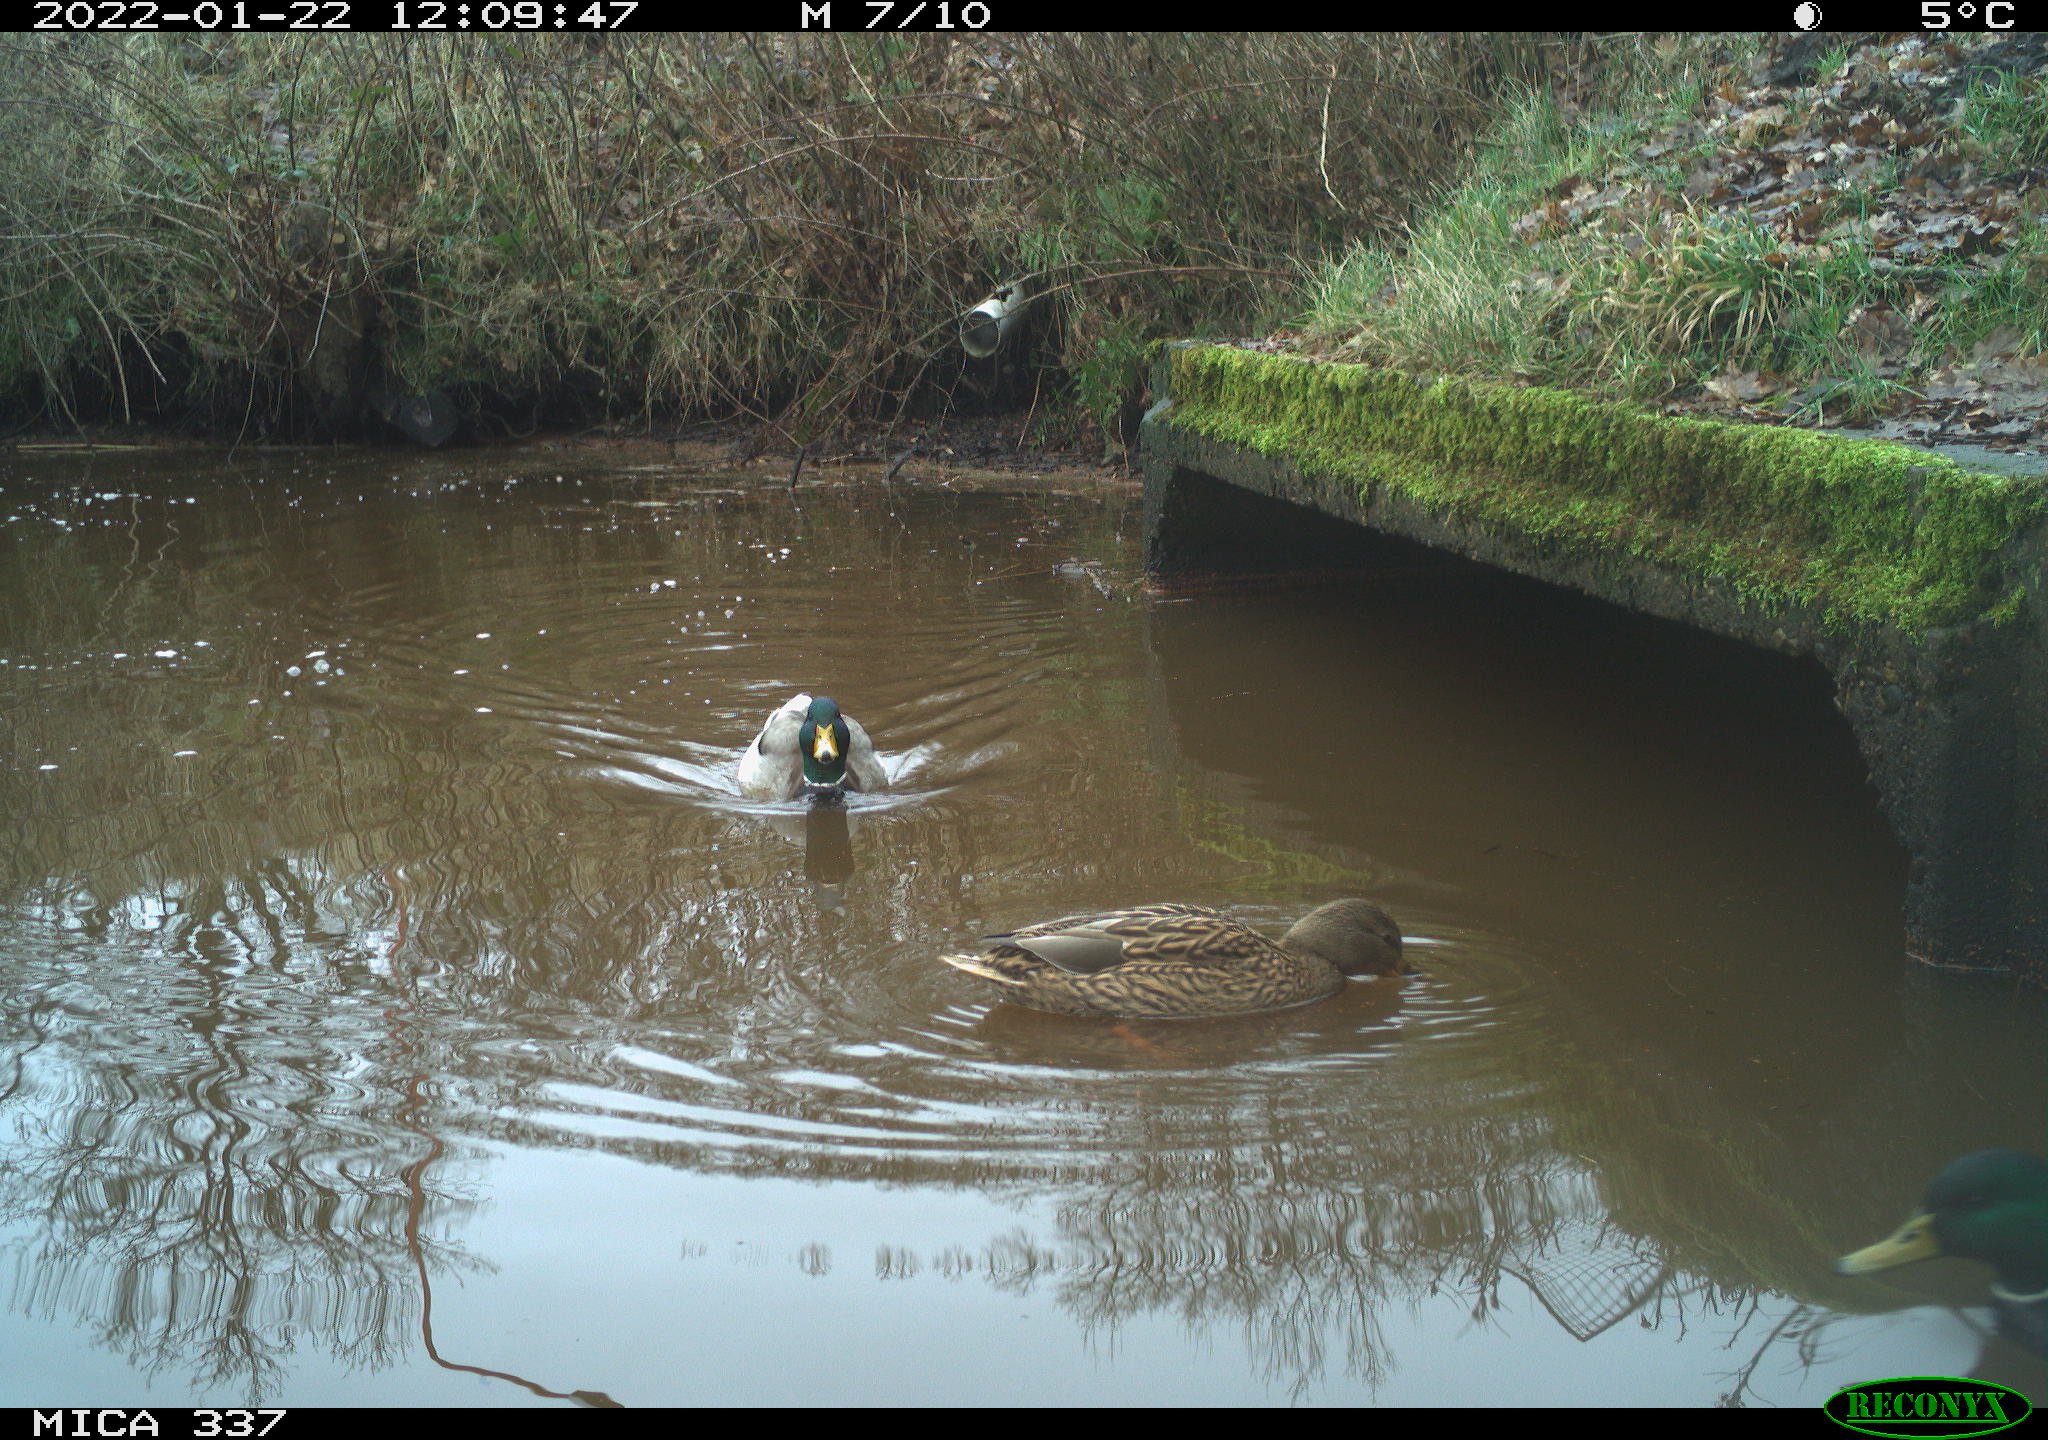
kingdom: Animalia
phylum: Chordata
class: Aves
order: Anseriformes
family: Anatidae
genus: Anas
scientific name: Anas platyrhynchos
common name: Mallard
